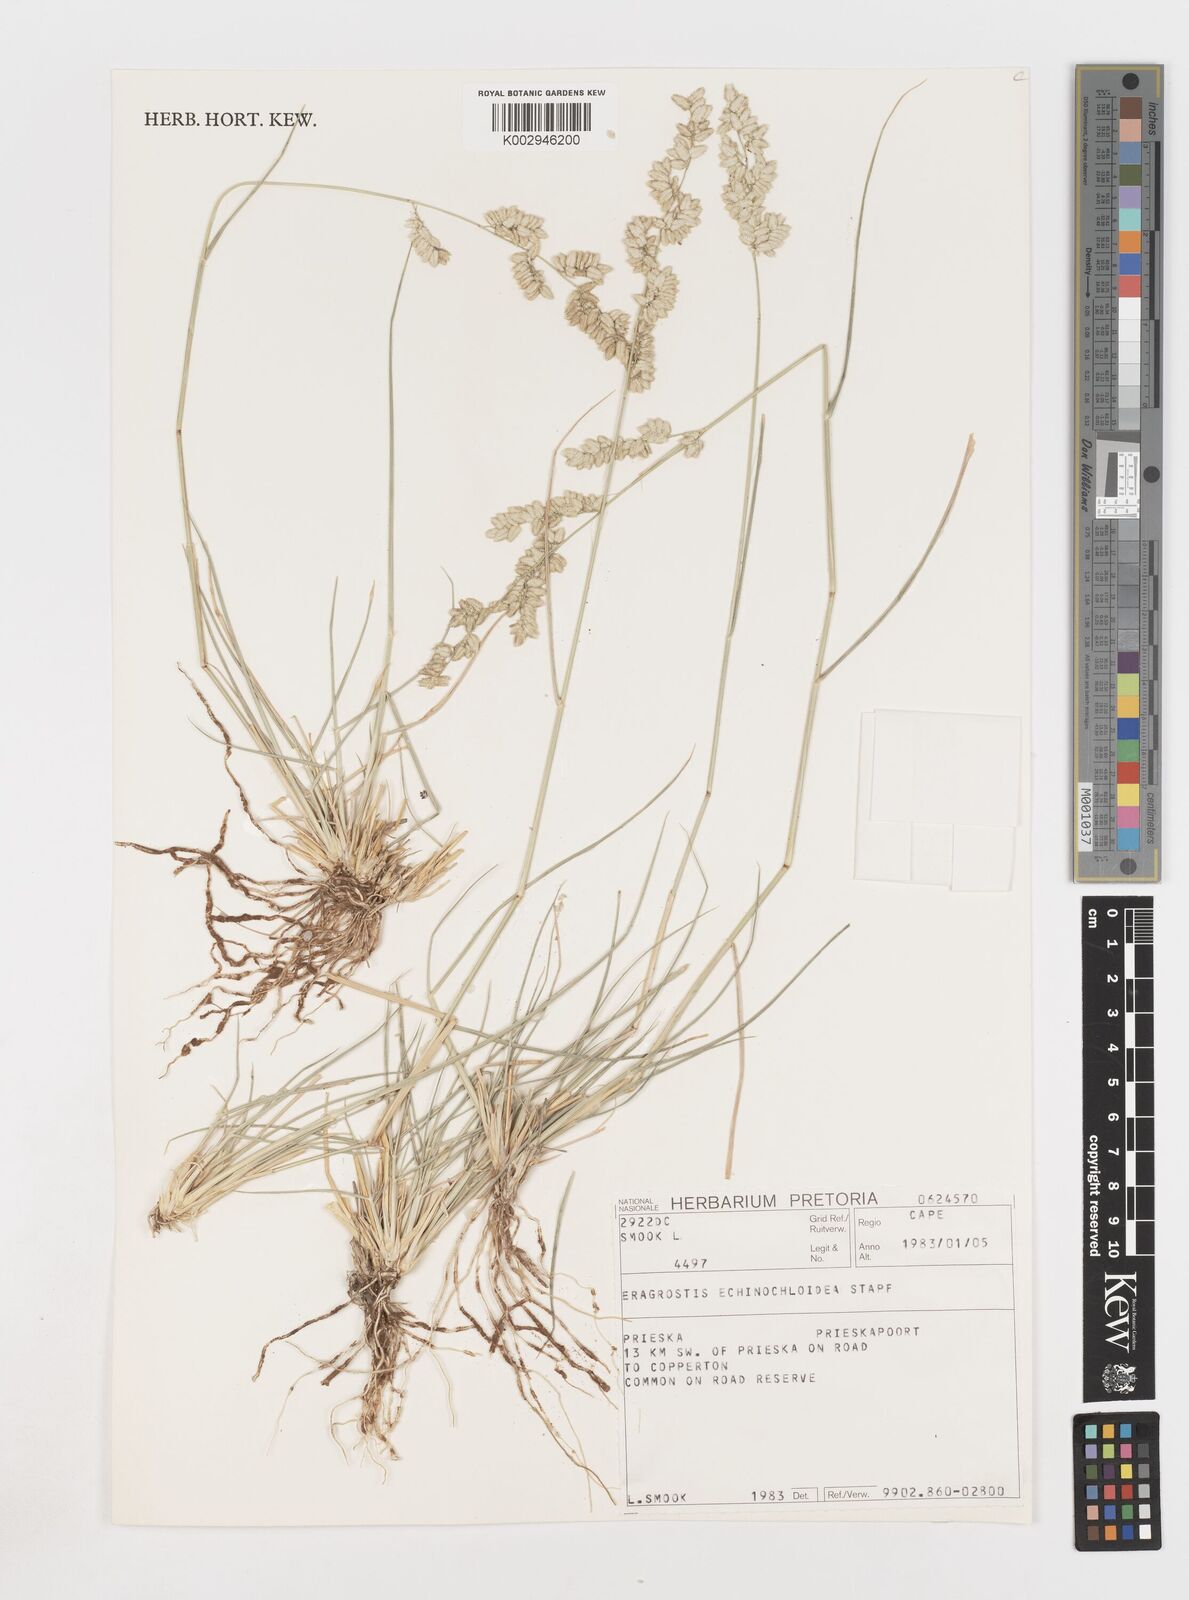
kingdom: Plantae
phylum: Tracheophyta
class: Liliopsida
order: Poales
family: Poaceae
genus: Eragrostis
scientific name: Eragrostis echinochloidea
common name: African lovegrass
